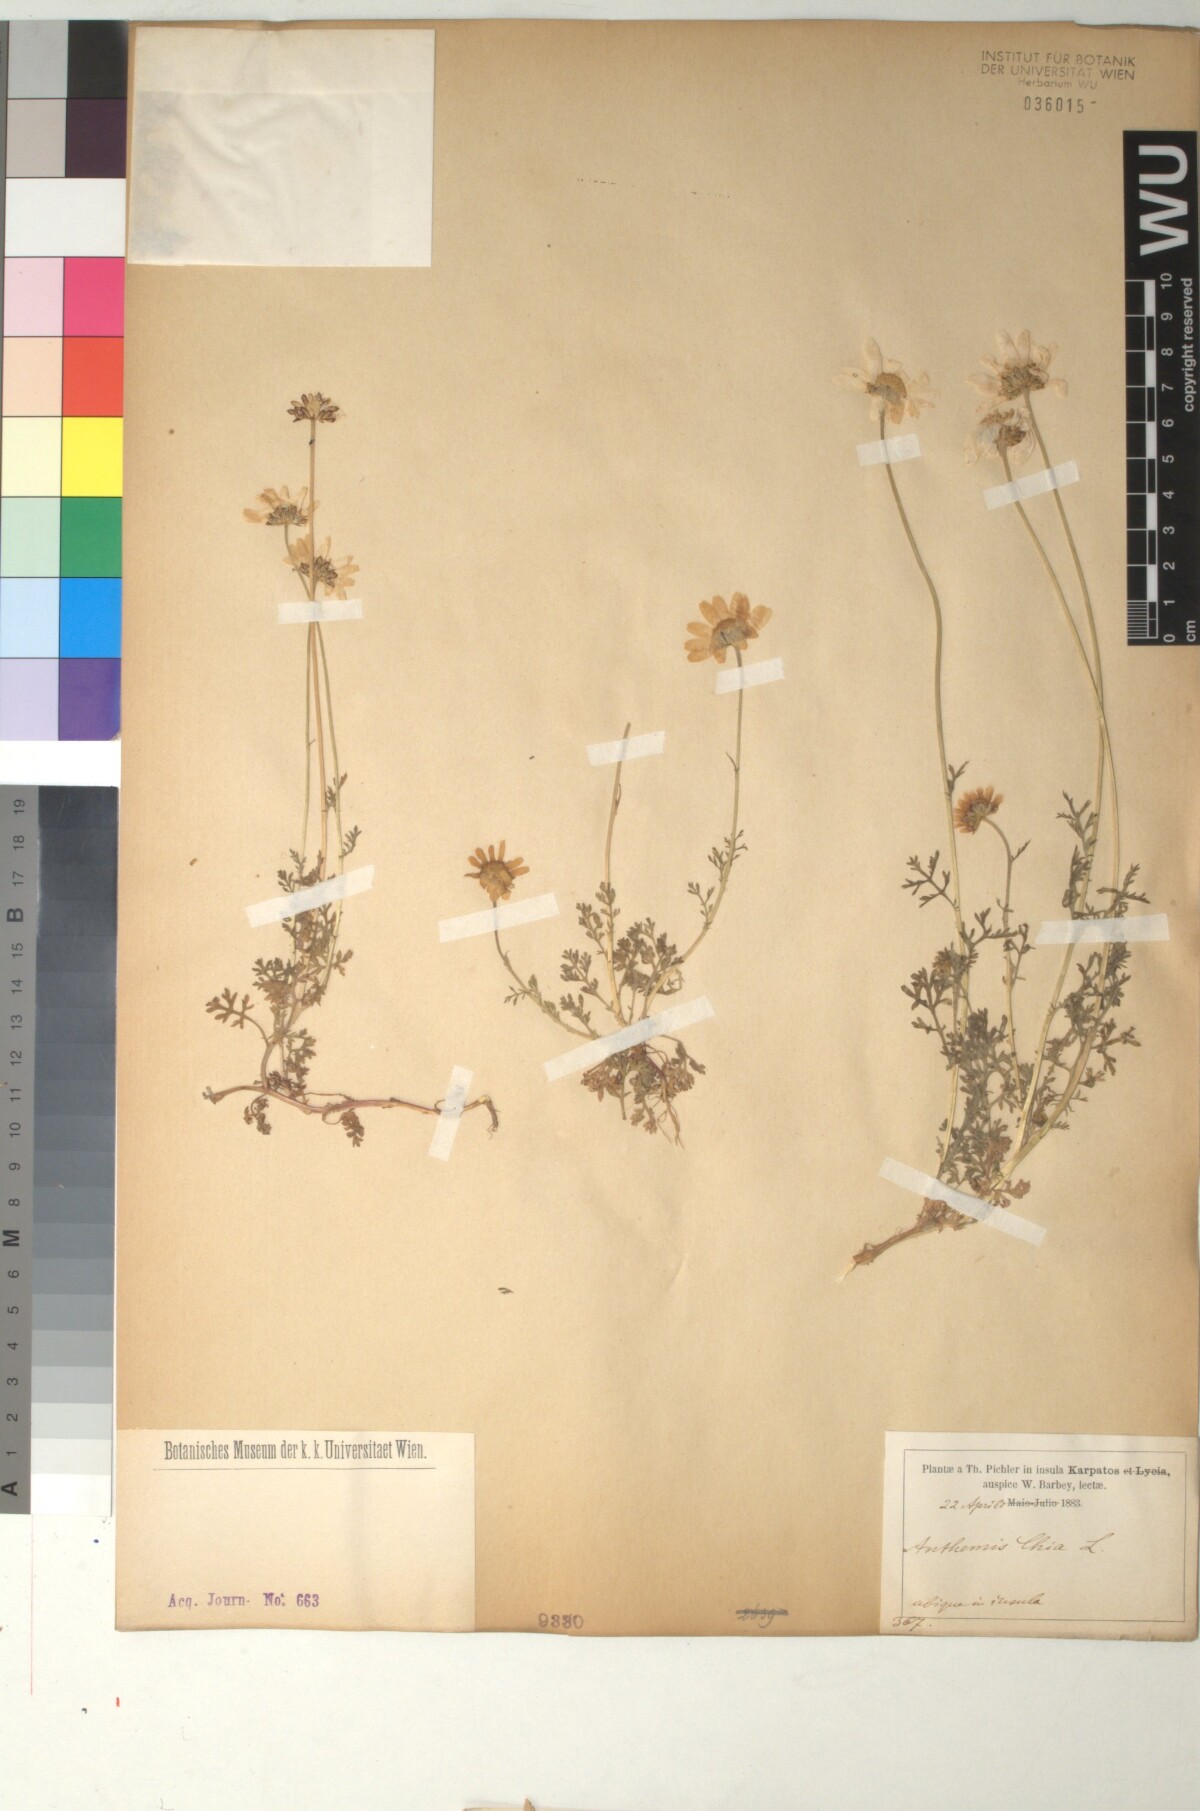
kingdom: Plantae
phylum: Tracheophyta
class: Magnoliopsida
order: Asterales
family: Asteraceae
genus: Anthemis
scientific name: Anthemis chia
